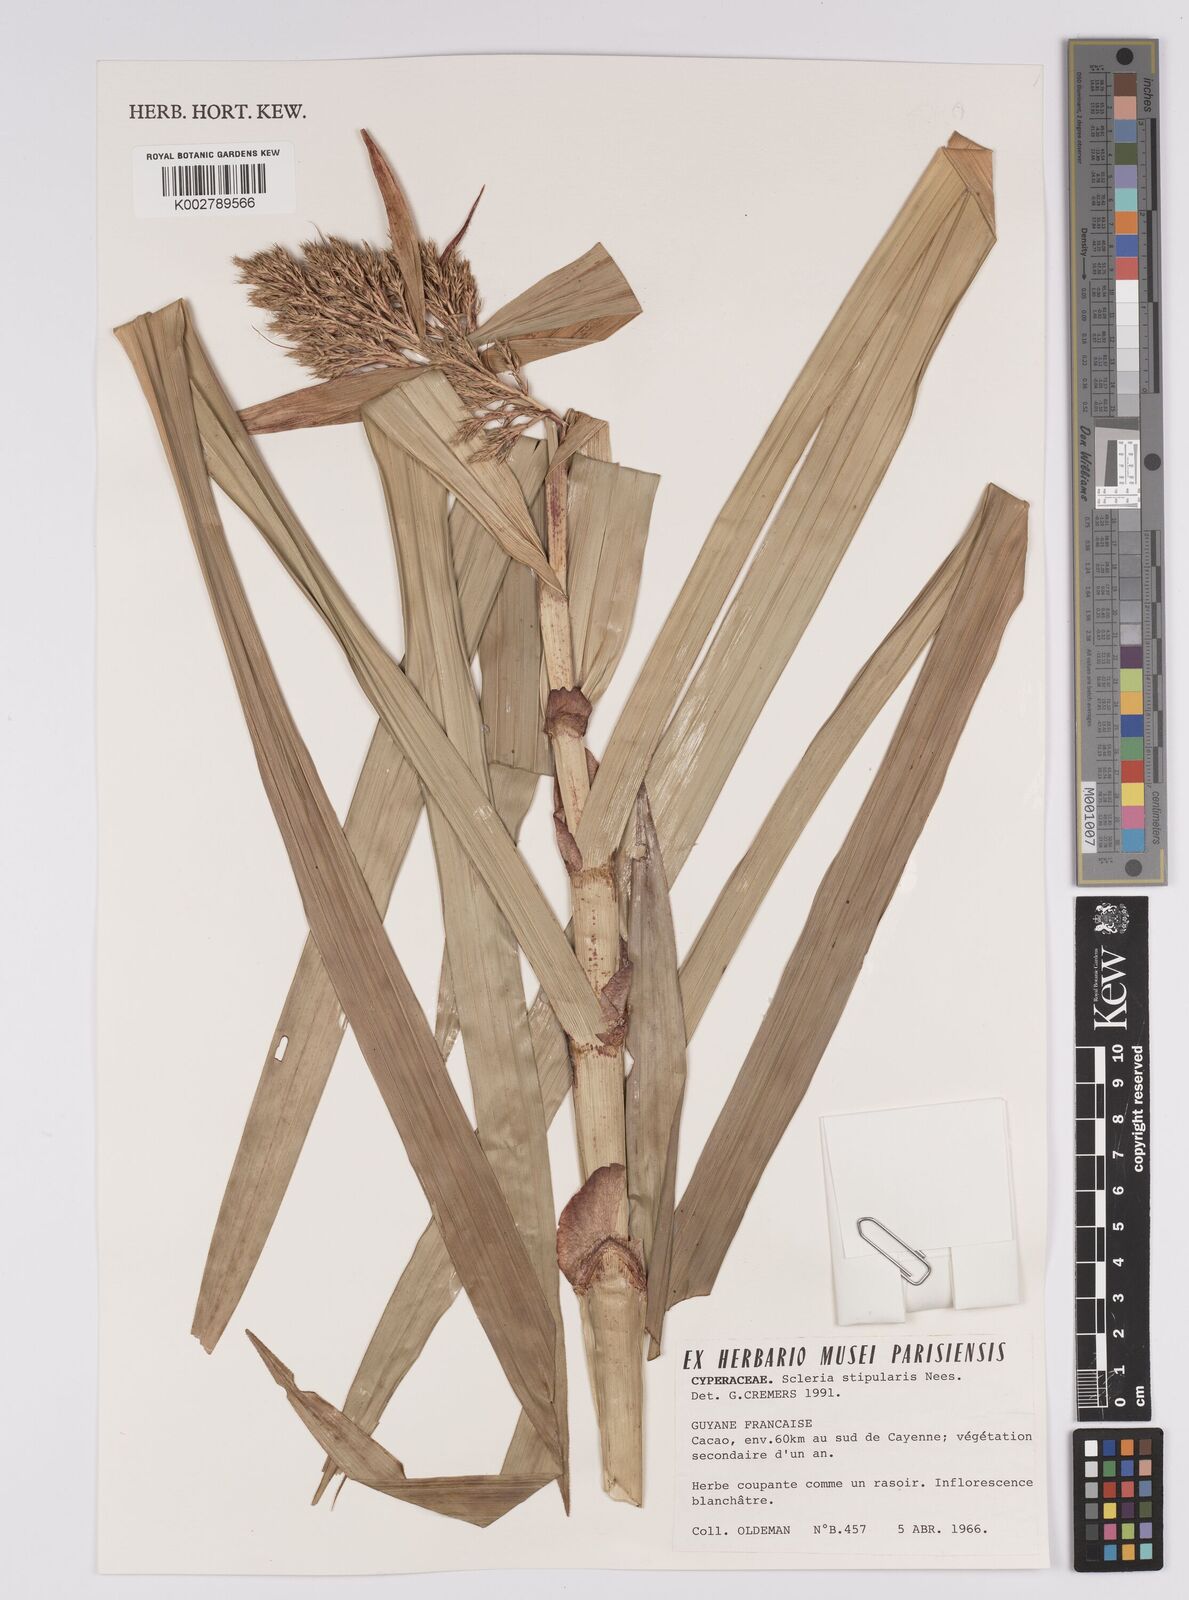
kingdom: Plantae
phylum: Tracheophyta
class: Liliopsida
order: Poales
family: Cyperaceae
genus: Scleria
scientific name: Scleria stipularis
